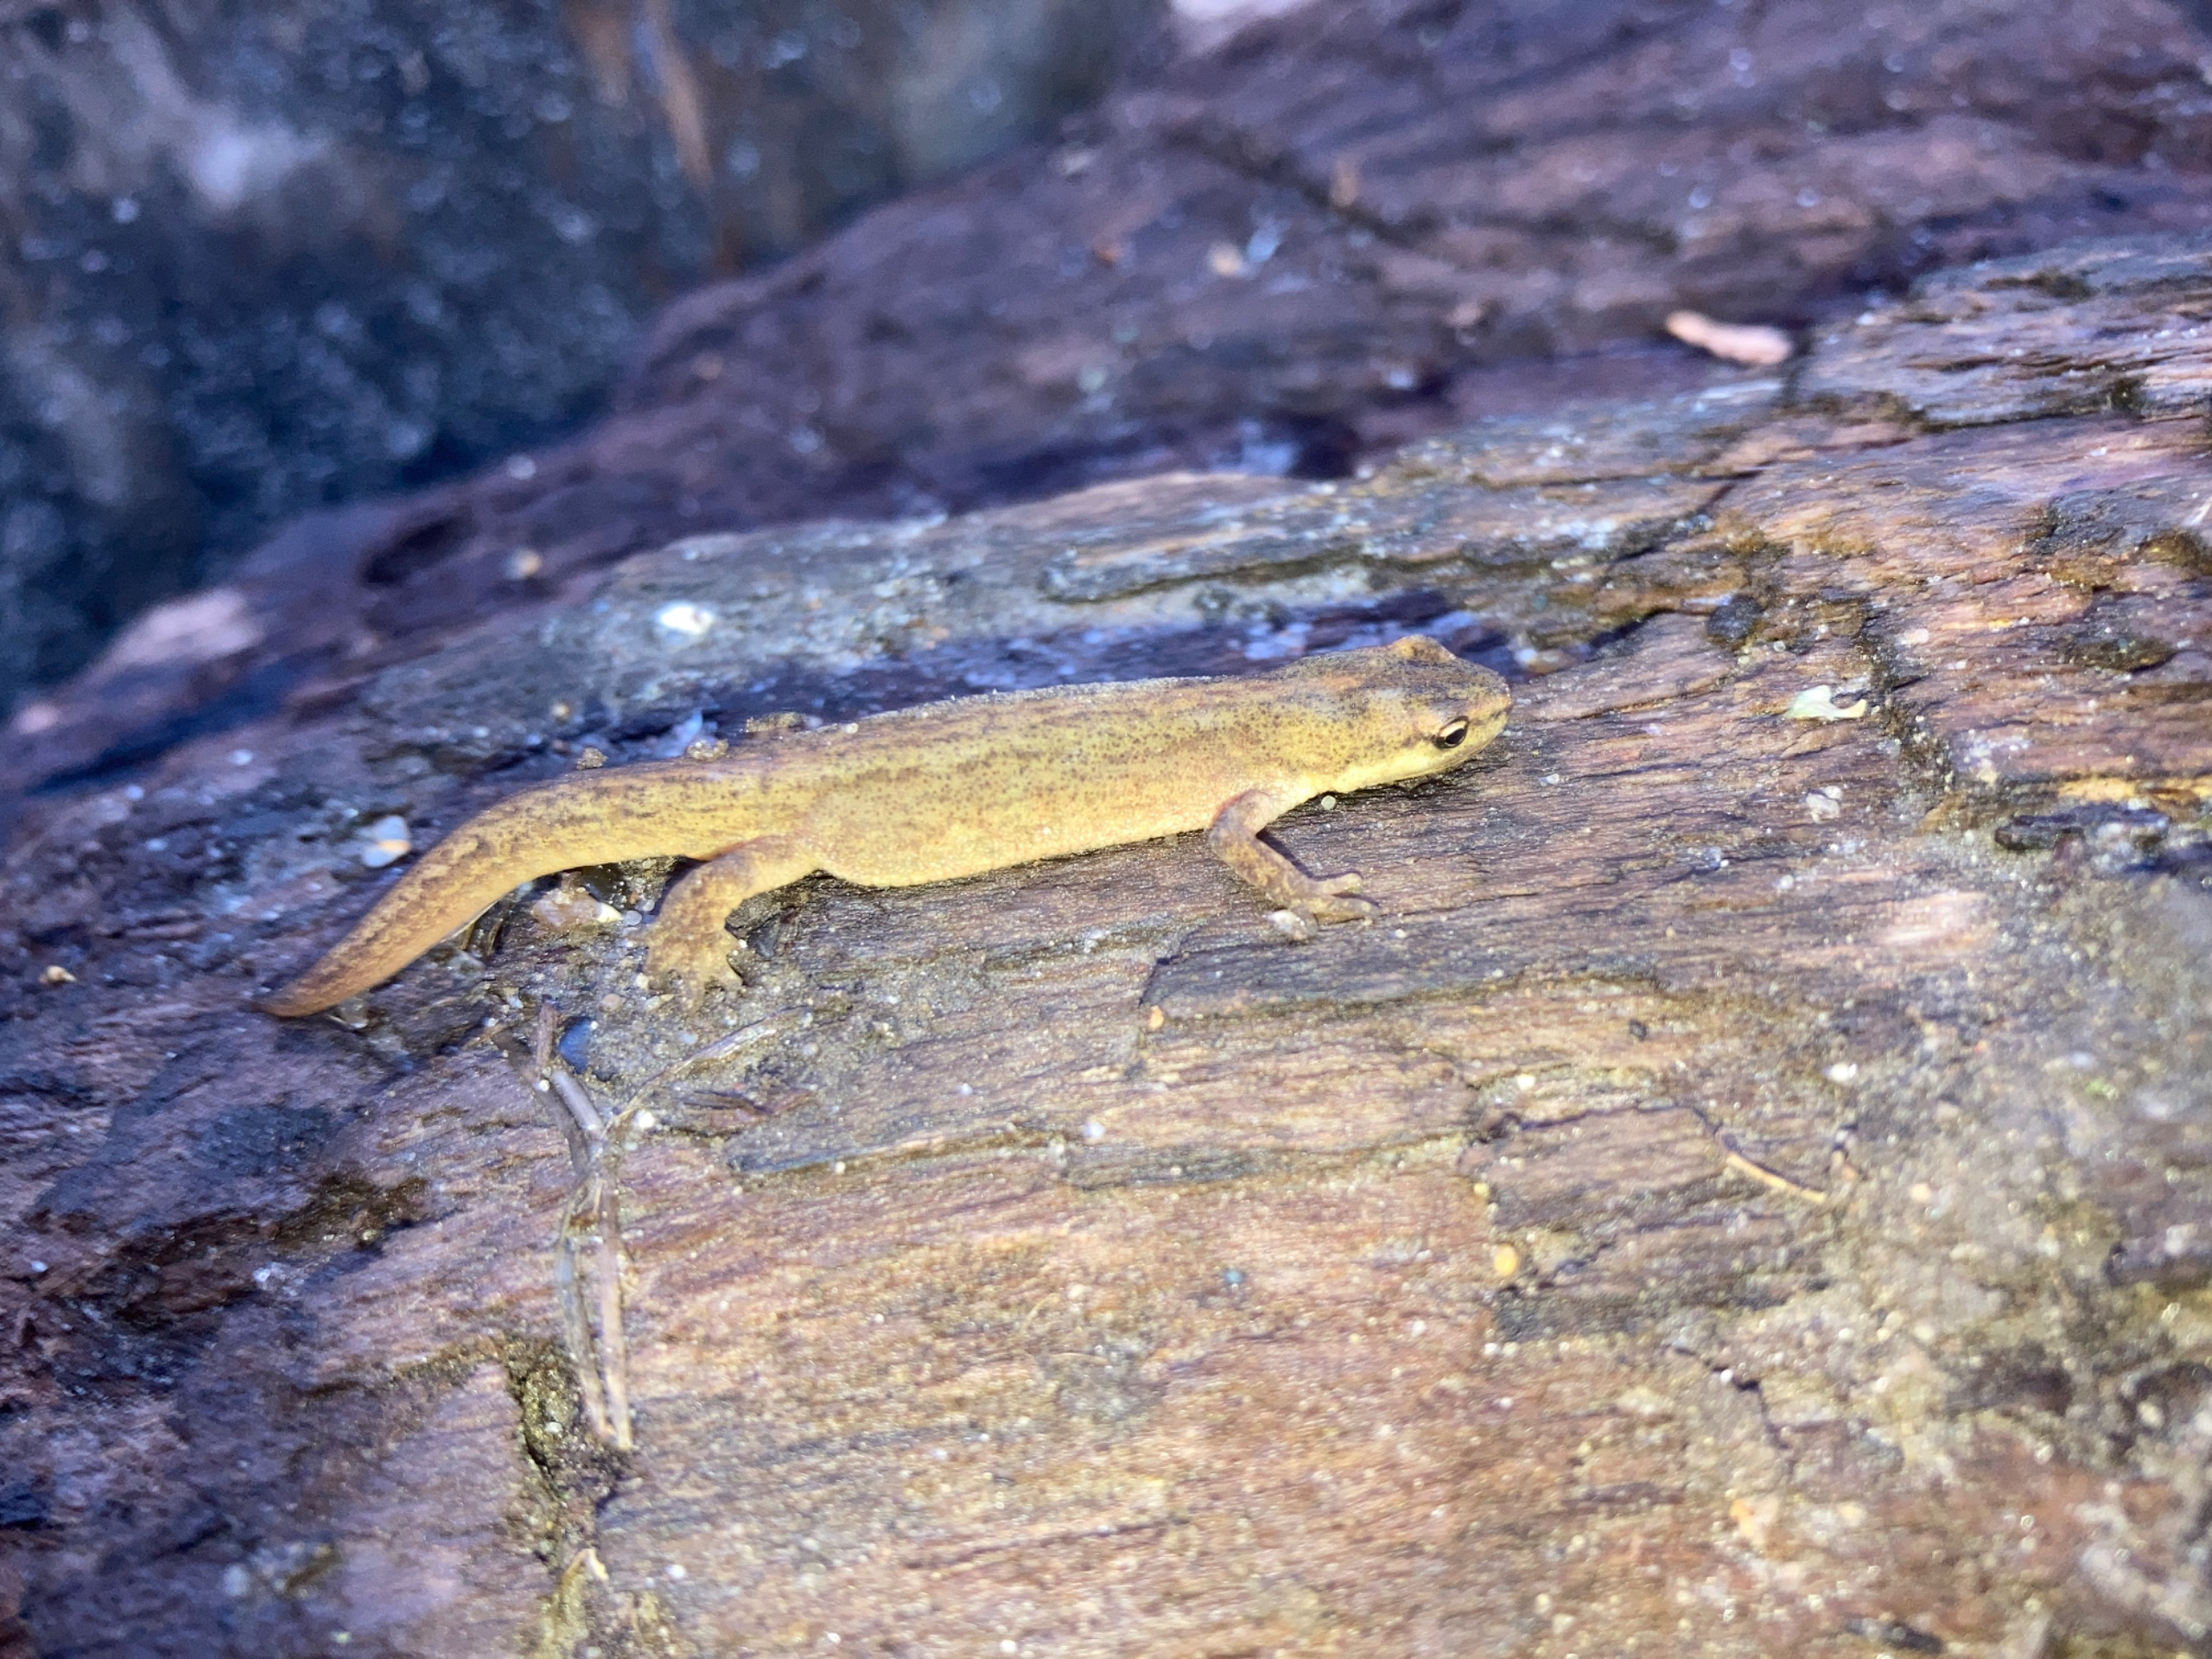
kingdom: Animalia
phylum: Chordata
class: Amphibia
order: Caudata
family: Salamandridae
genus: Lissotriton
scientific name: Lissotriton vulgaris
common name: Lille vandsalamander
